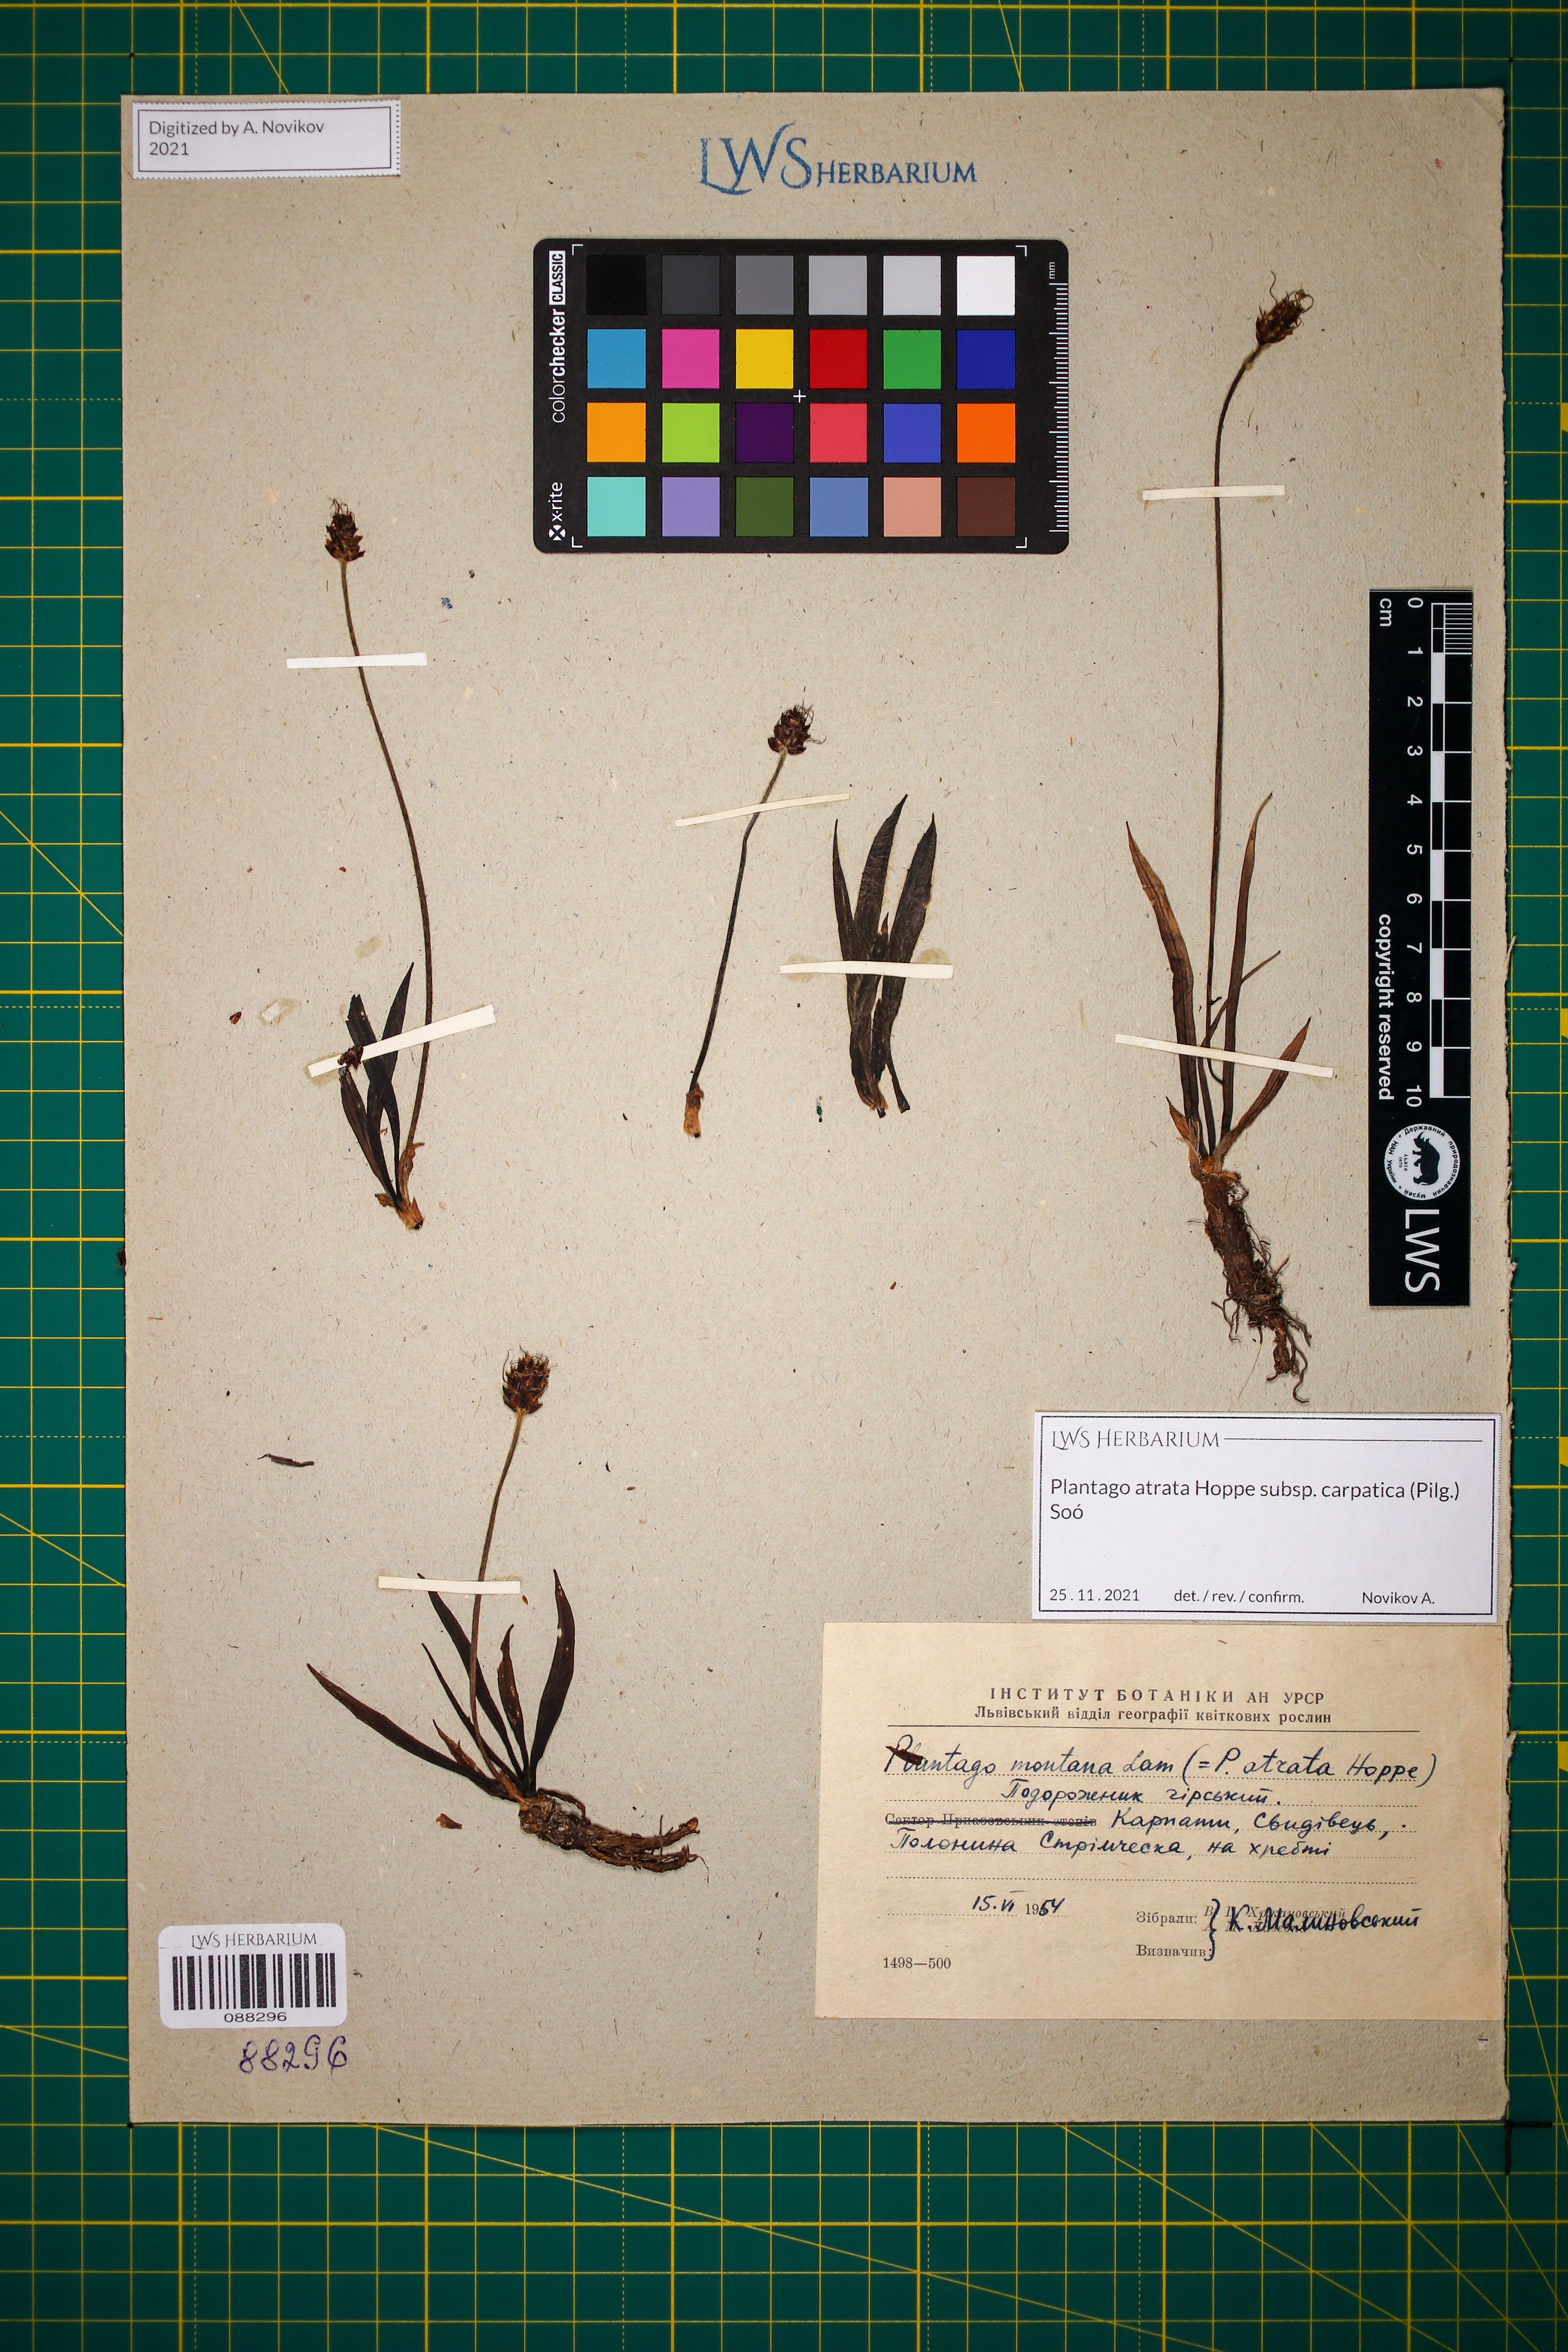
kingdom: Plantae
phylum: Tracheophyta
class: Magnoliopsida
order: Lamiales
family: Plantaginaceae
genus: Plantago
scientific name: Plantago atrata
